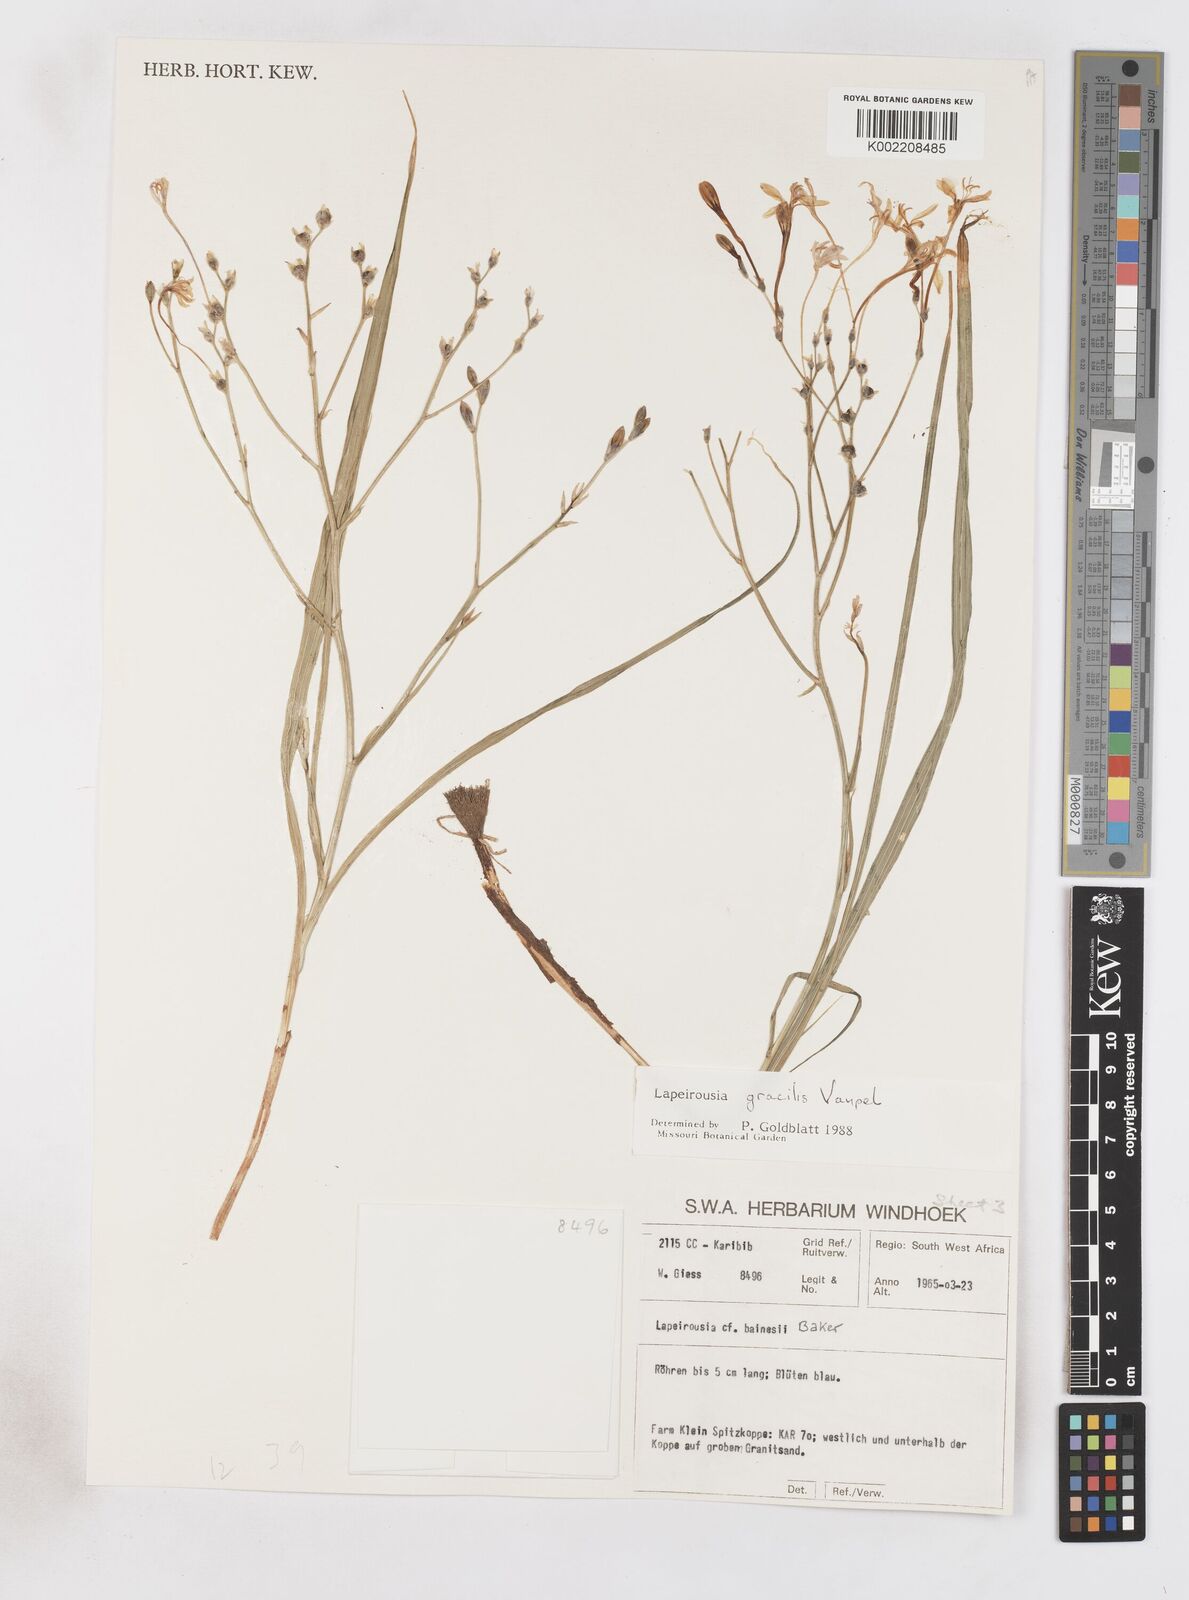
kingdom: Plantae
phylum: Tracheophyta
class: Liliopsida
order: Asparagales
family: Iridaceae
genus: Afrosolen
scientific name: Afrosolen gracilis
